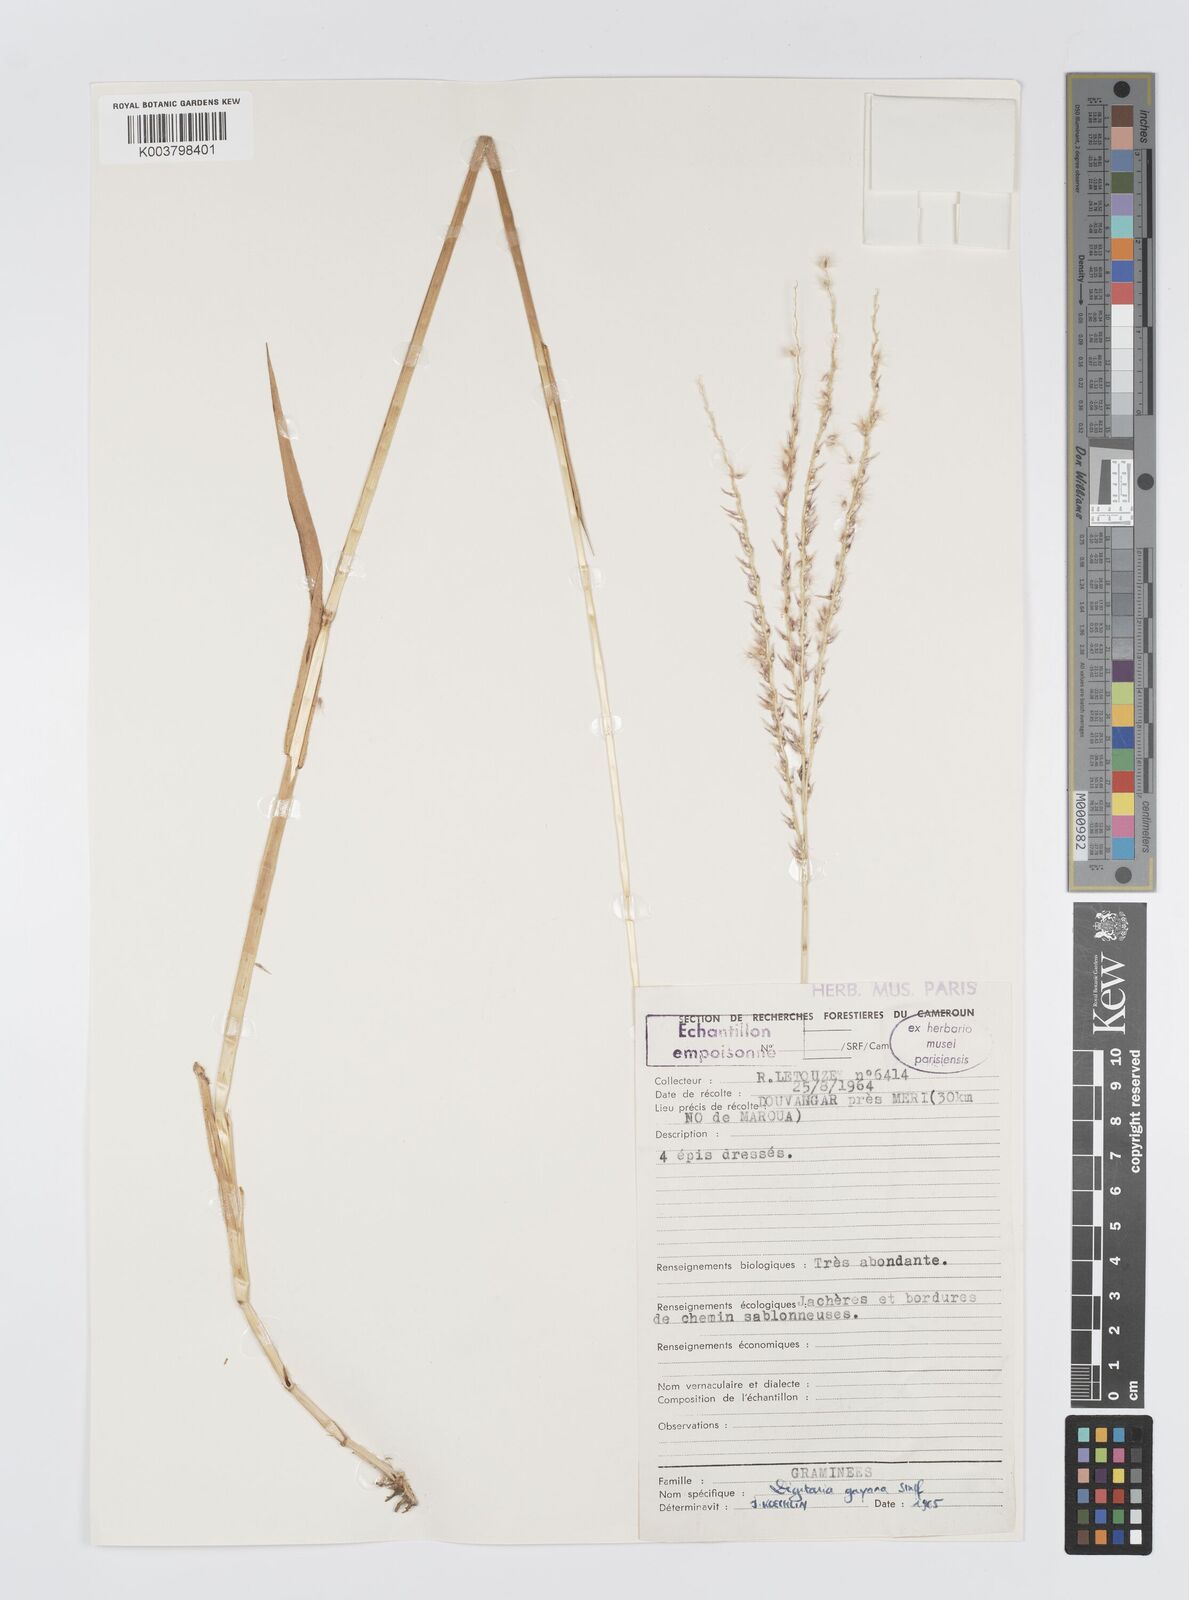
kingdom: Plantae
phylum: Tracheophyta
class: Liliopsida
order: Poales
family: Poaceae
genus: Digitaria
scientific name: Digitaria gayana
